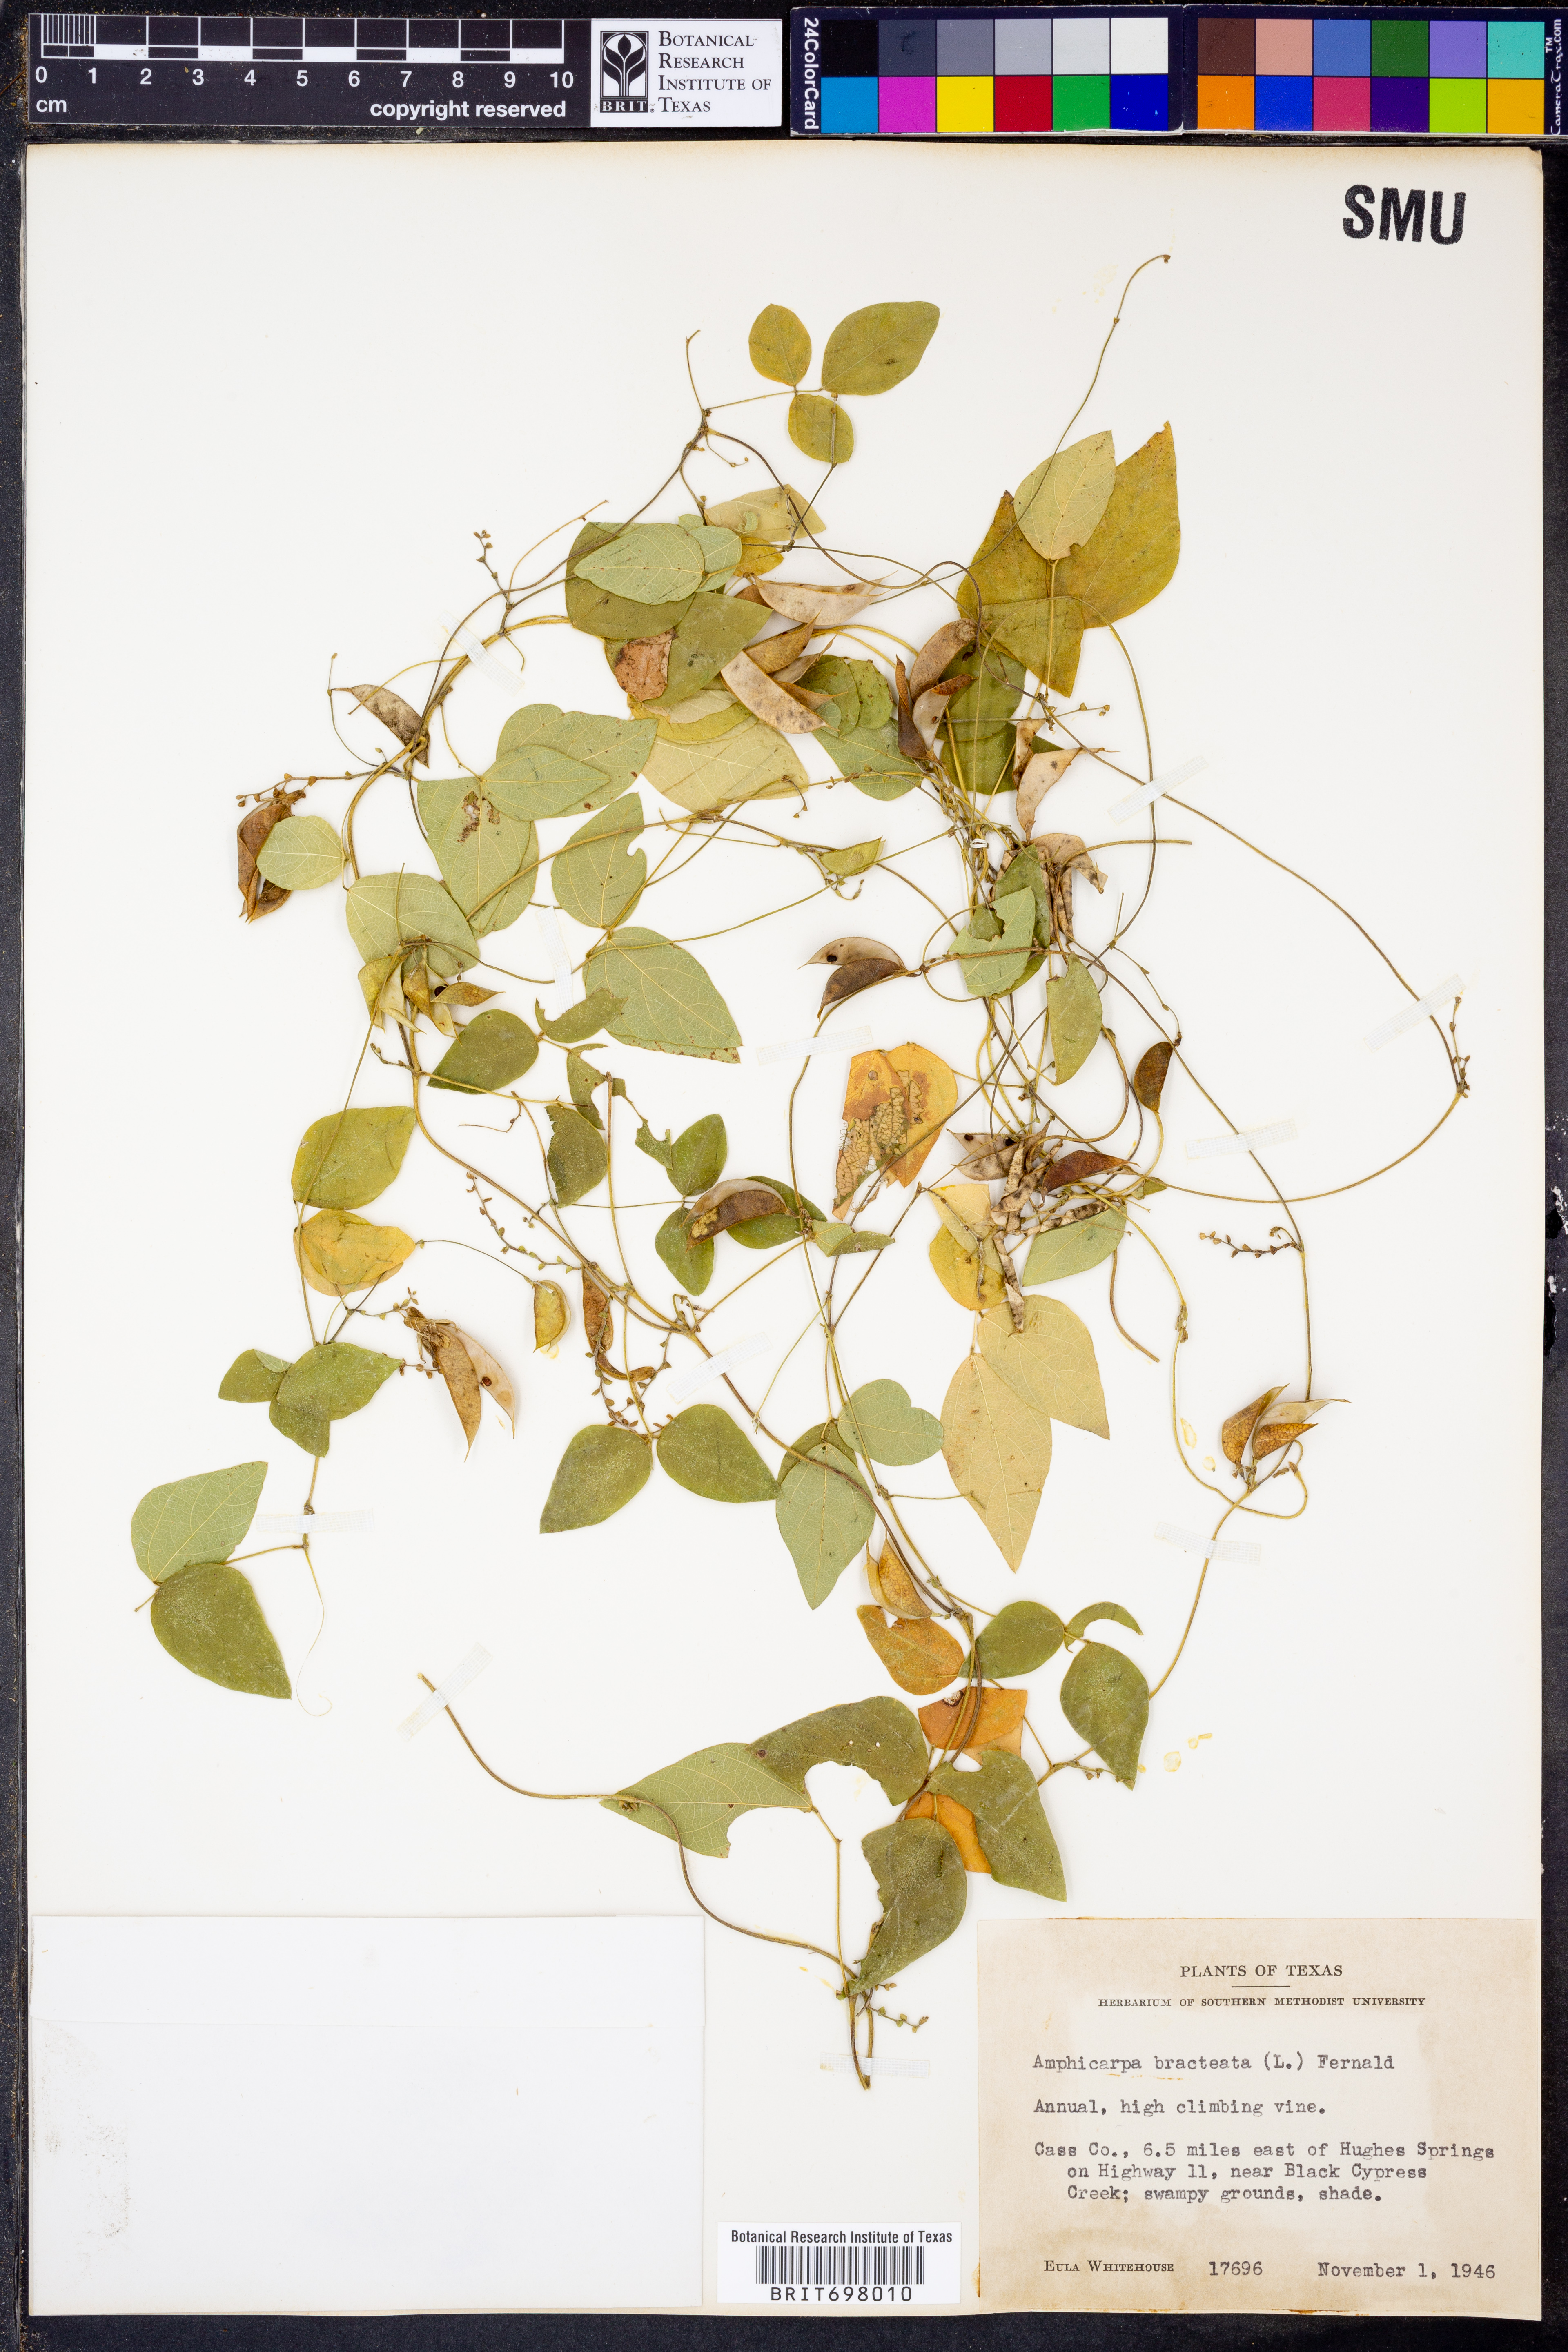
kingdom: Plantae
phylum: Tracheophyta
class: Magnoliopsida
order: Fabales
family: Fabaceae
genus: Amphicarpaea
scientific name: Amphicarpaea bracteata
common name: American hog peanut
